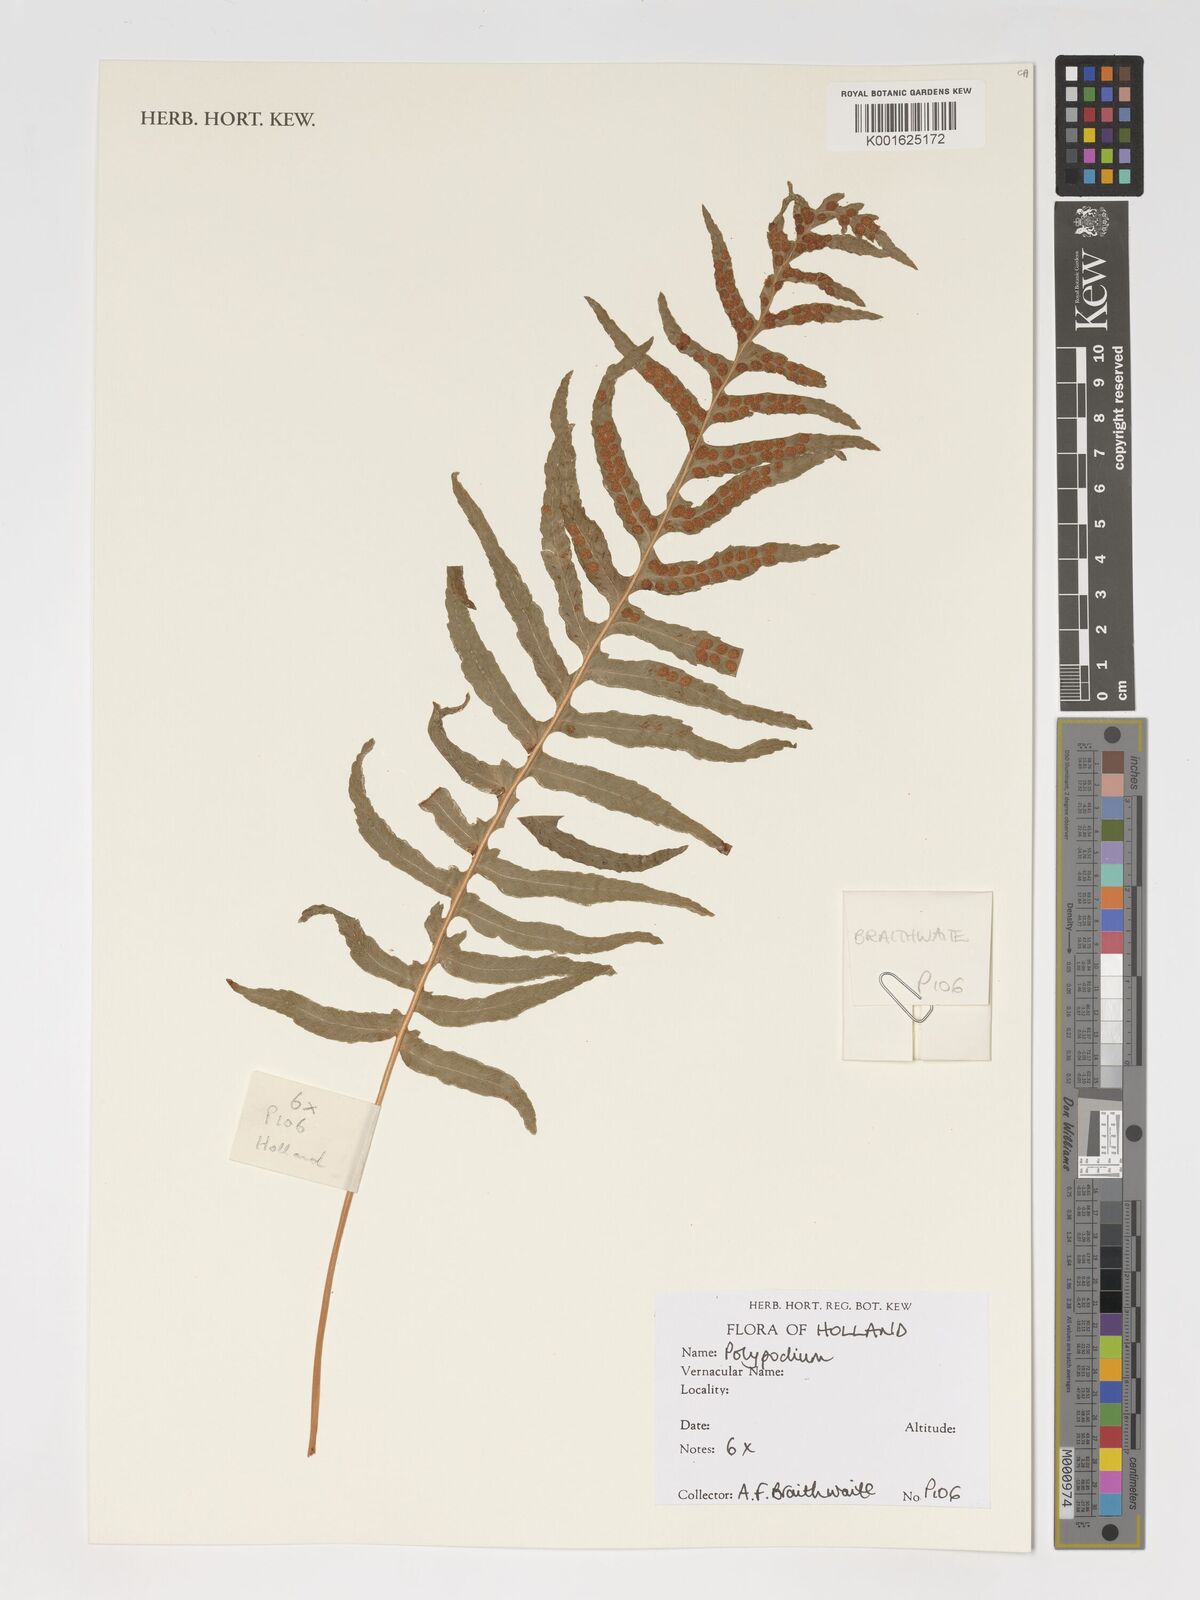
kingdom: Plantae
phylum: Tracheophyta
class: Polypodiopsida
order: Polypodiales
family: Polypodiaceae
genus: Polypodium
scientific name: Polypodium
